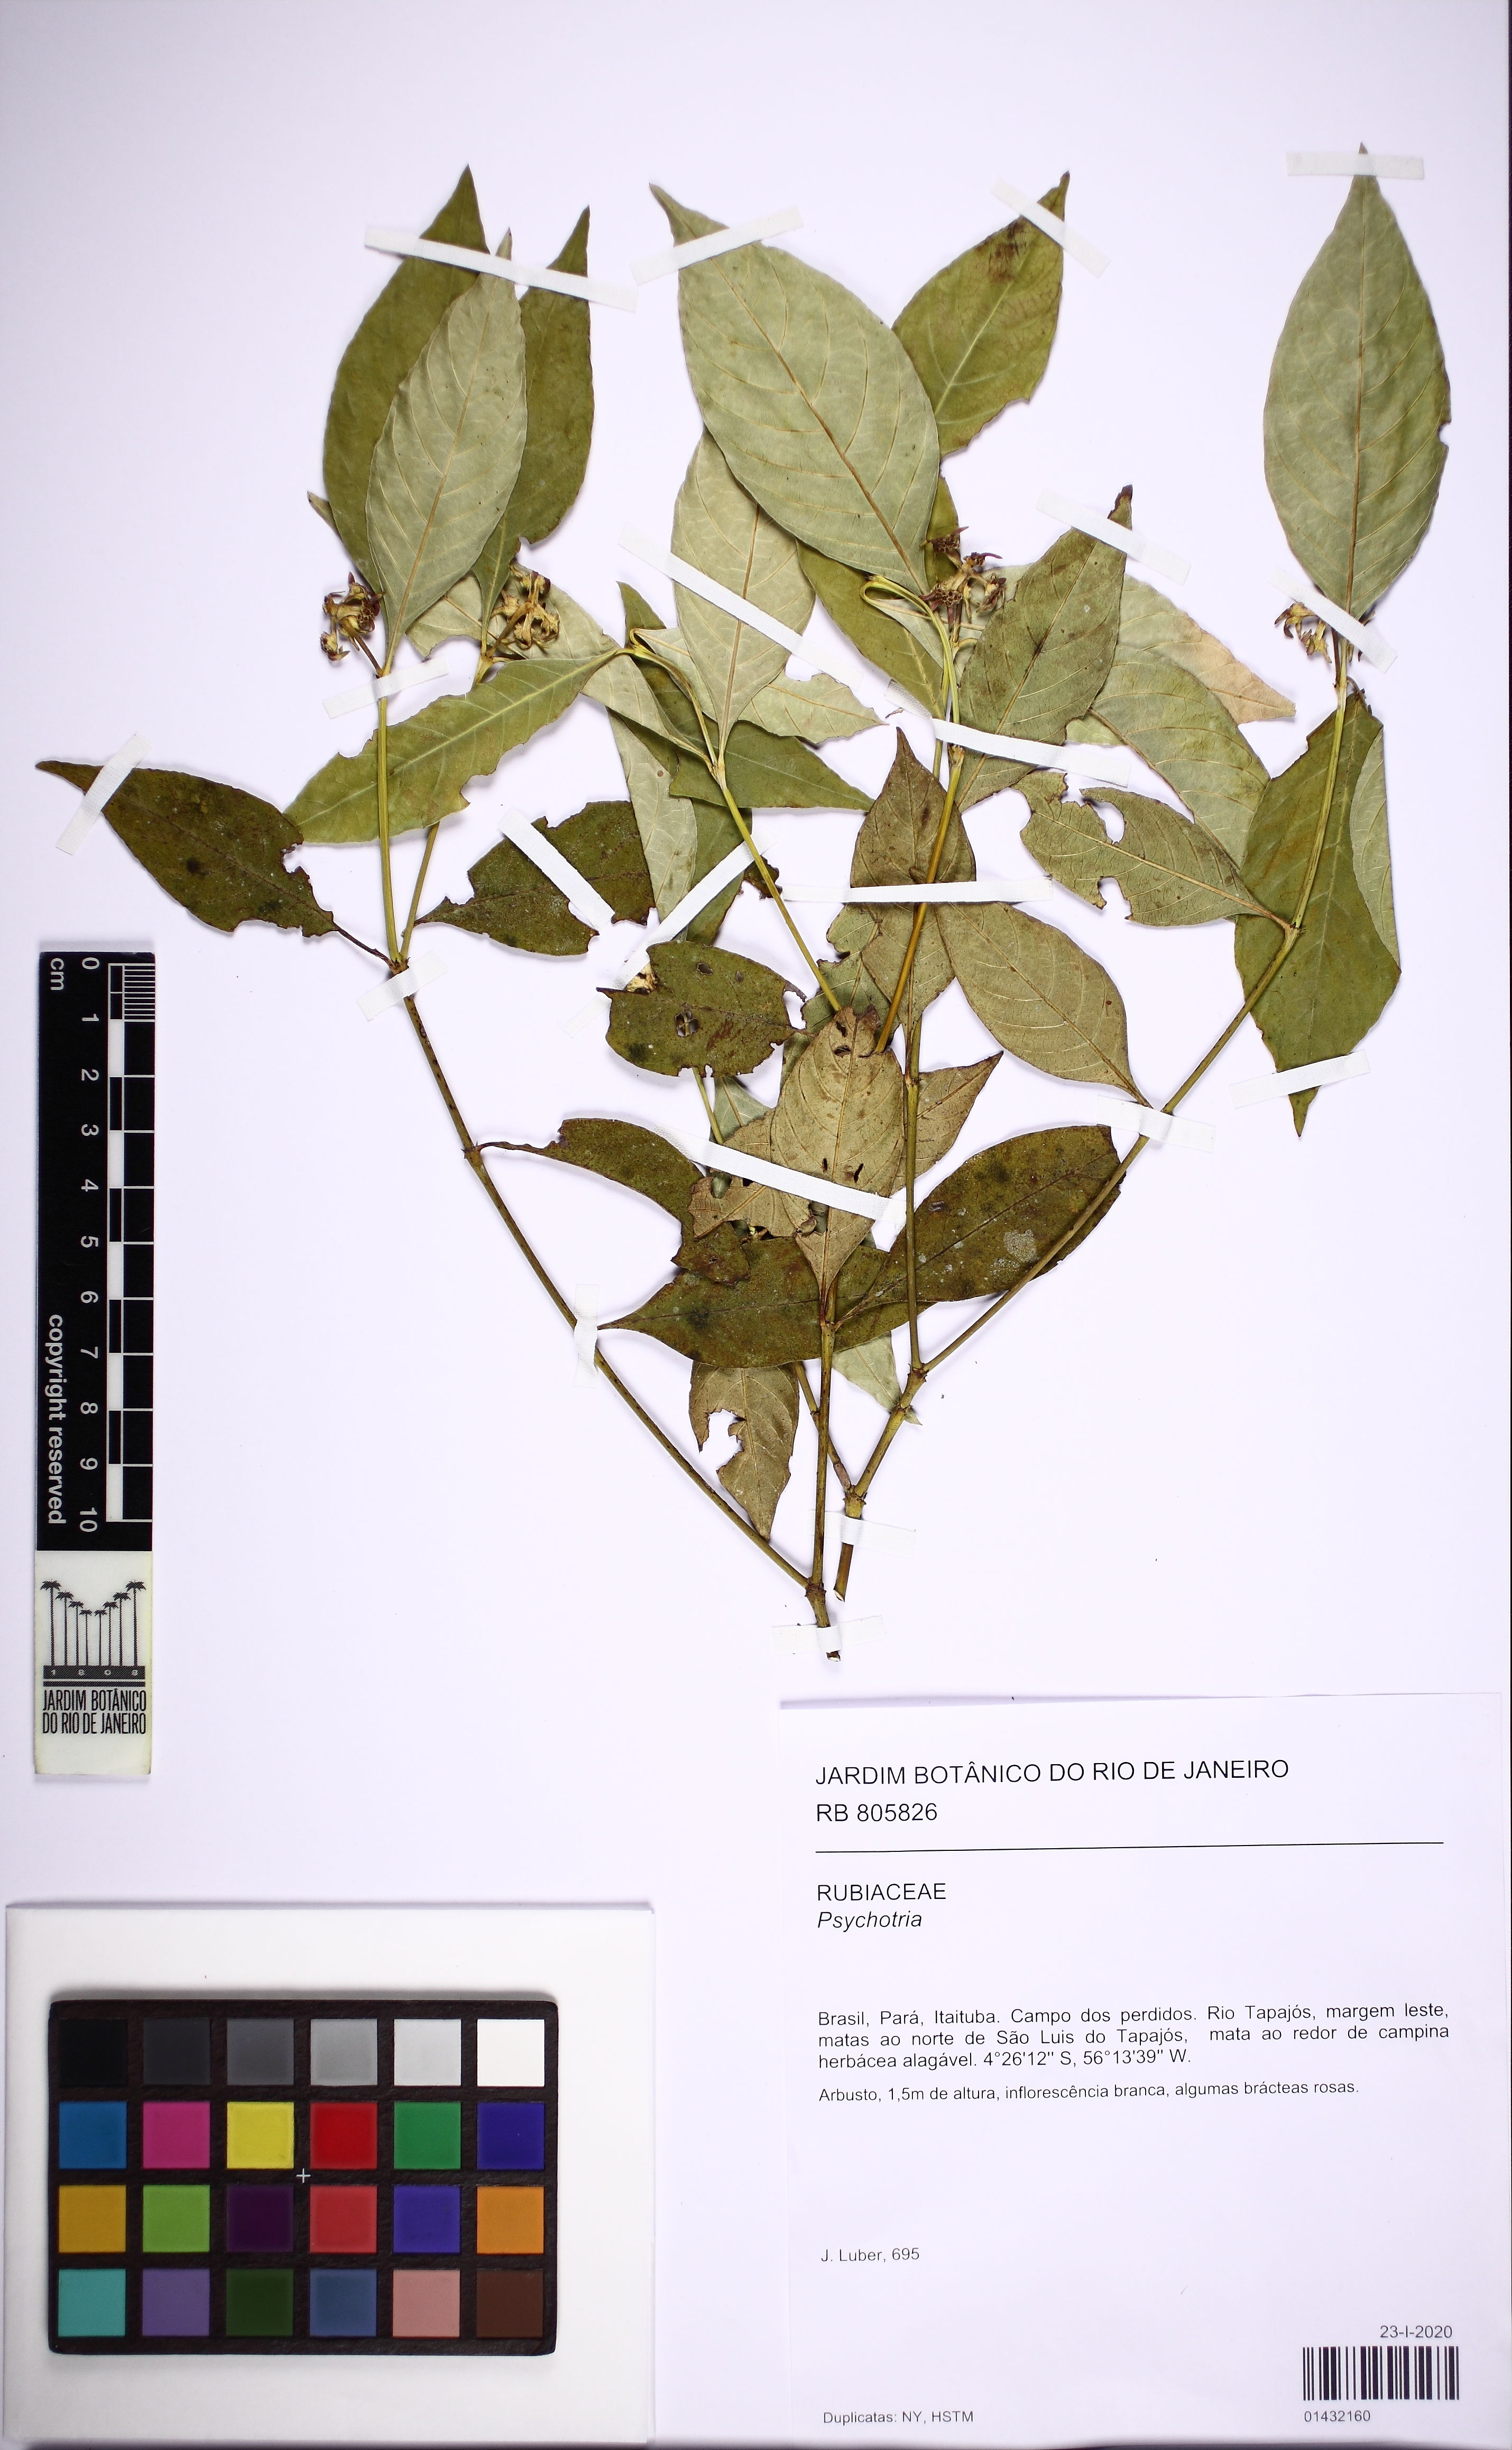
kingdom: Plantae
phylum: Tracheophyta
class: Magnoliopsida
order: Gentianales
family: Rubiaceae
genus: Palicourea
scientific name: Palicourea hoffmannseggiana
